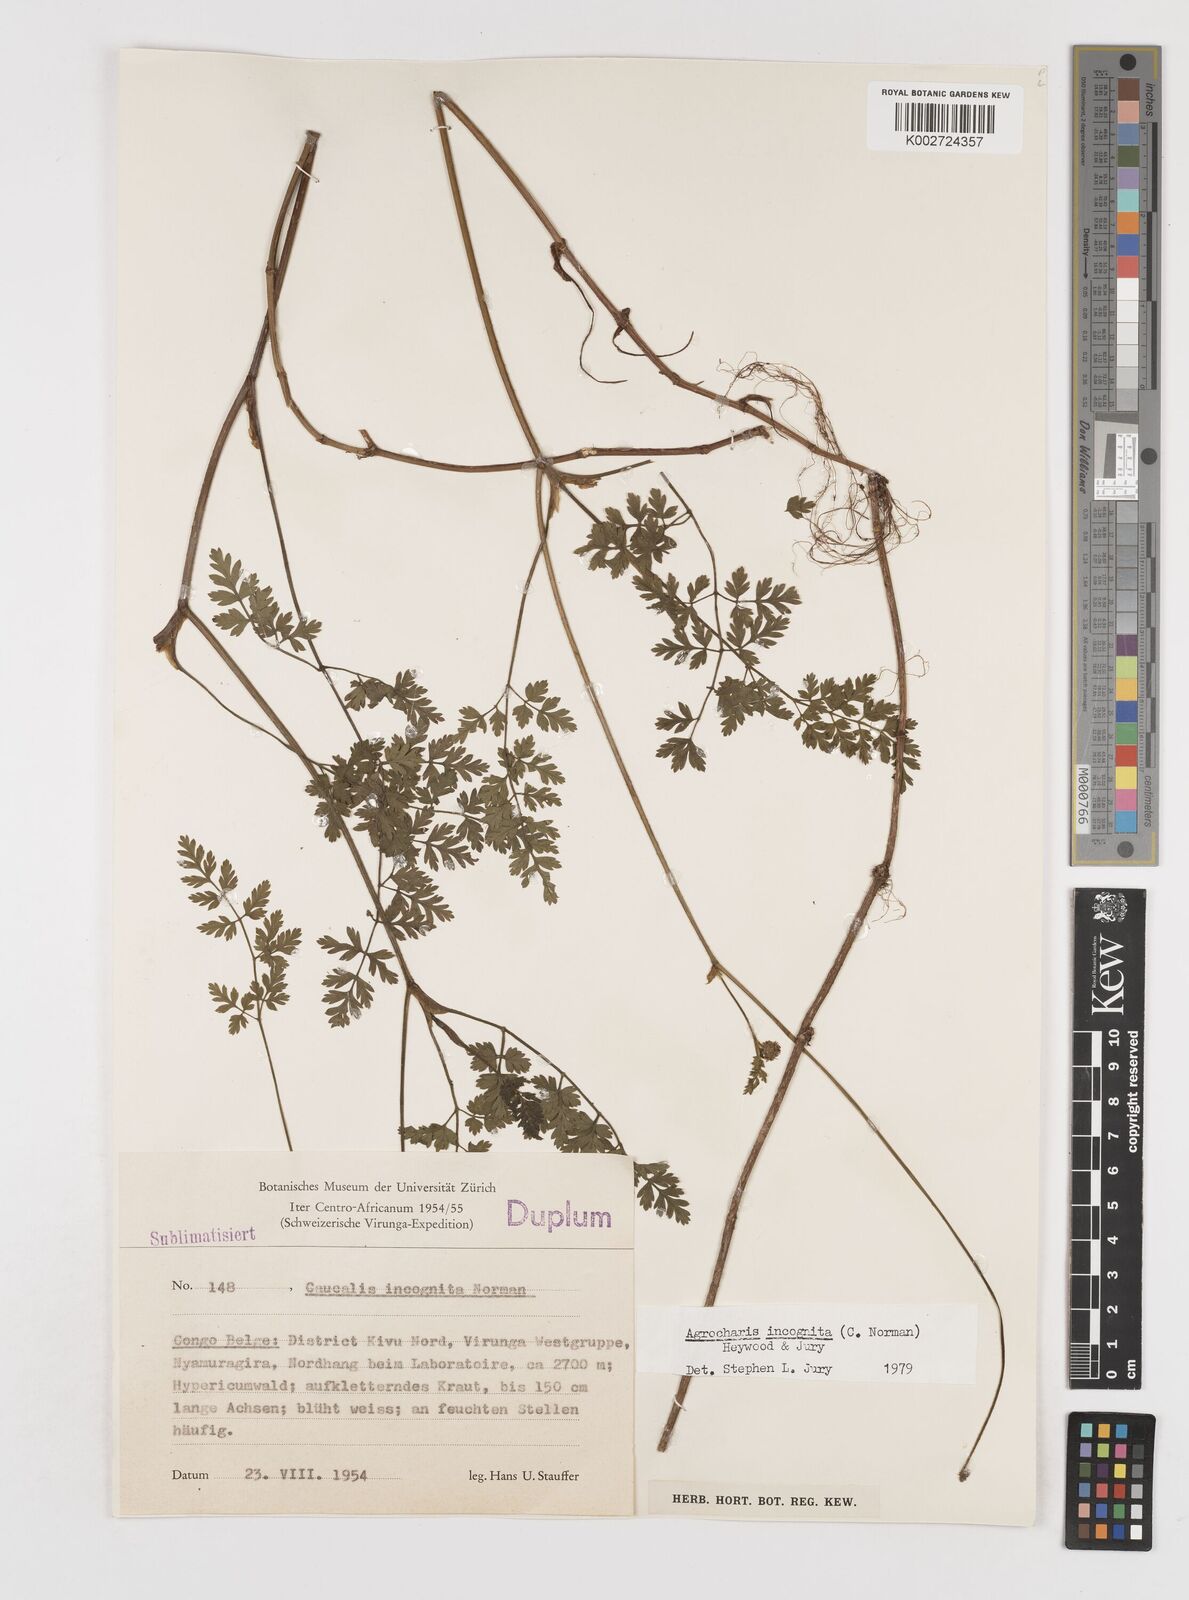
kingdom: Plantae
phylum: Tracheophyta
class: Magnoliopsida
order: Apiales
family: Apiaceae
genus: Daucus
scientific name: Daucus incognitus
